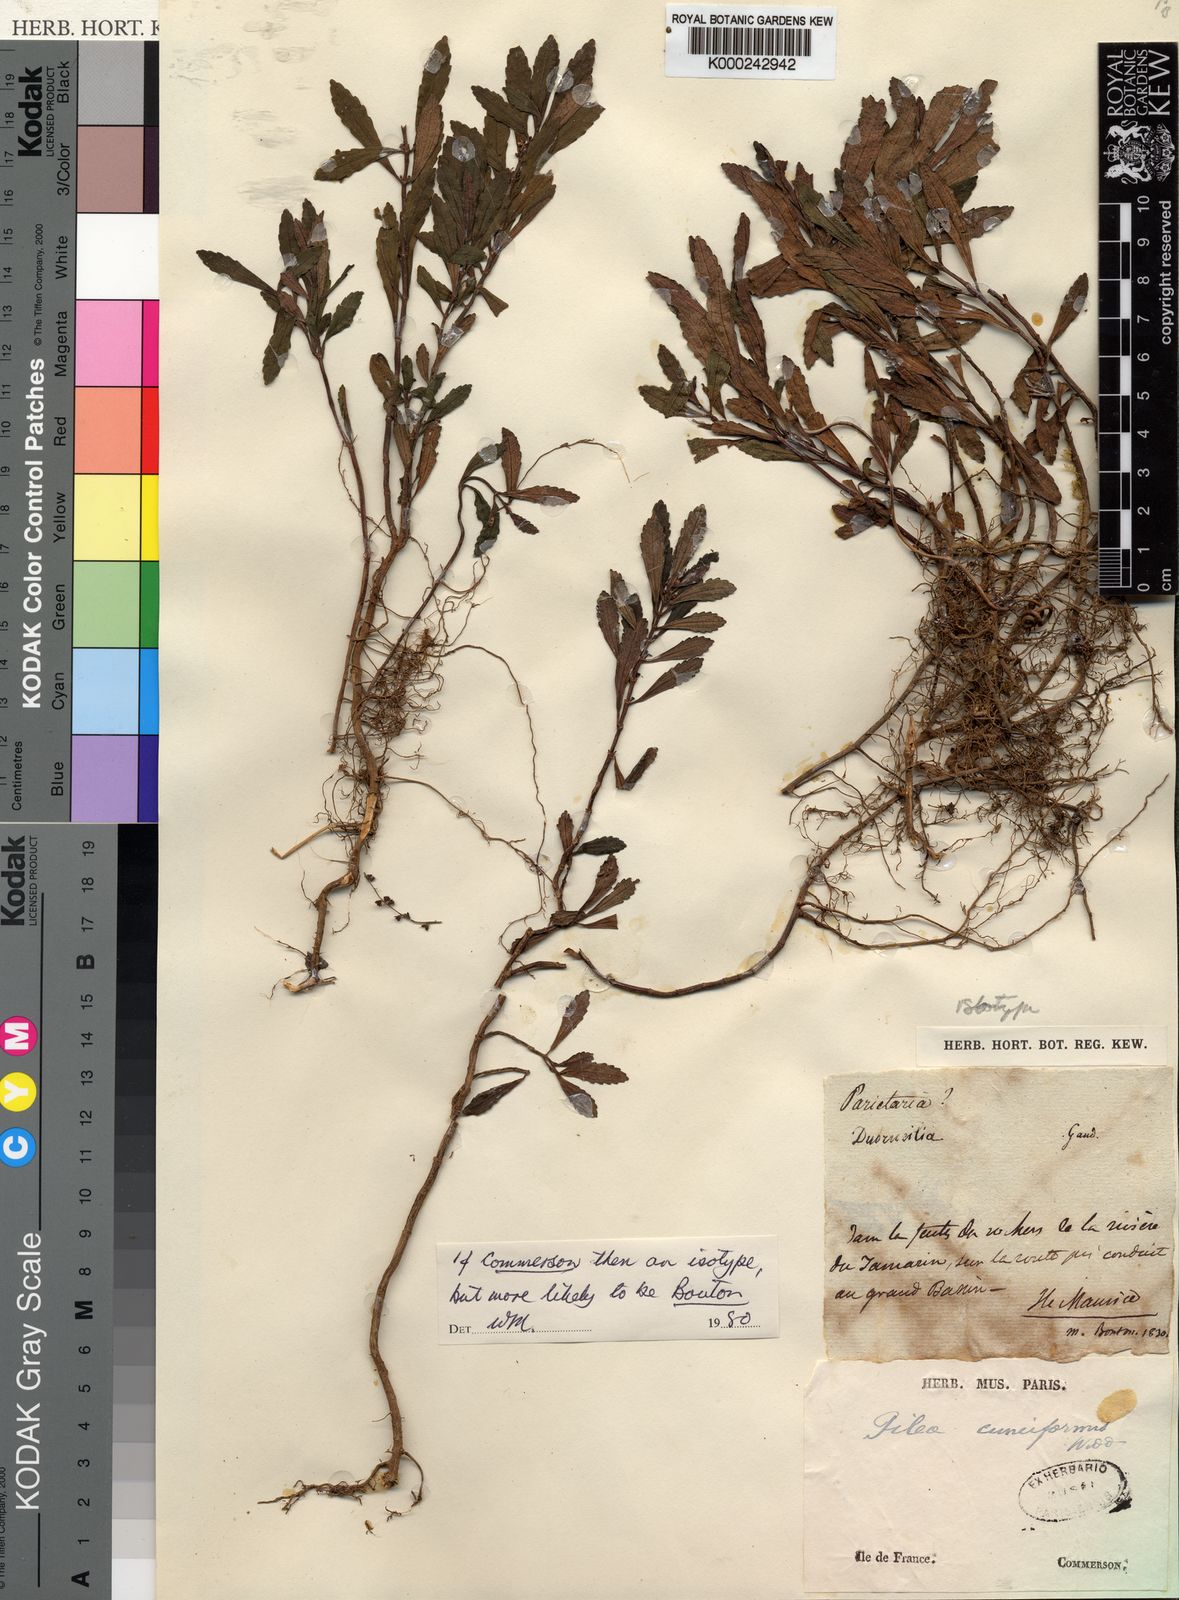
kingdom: Plantae
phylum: Tracheophyta
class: Magnoliopsida
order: Rosales
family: Urticaceae
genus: Pilea
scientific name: Pilea cuneiformis
